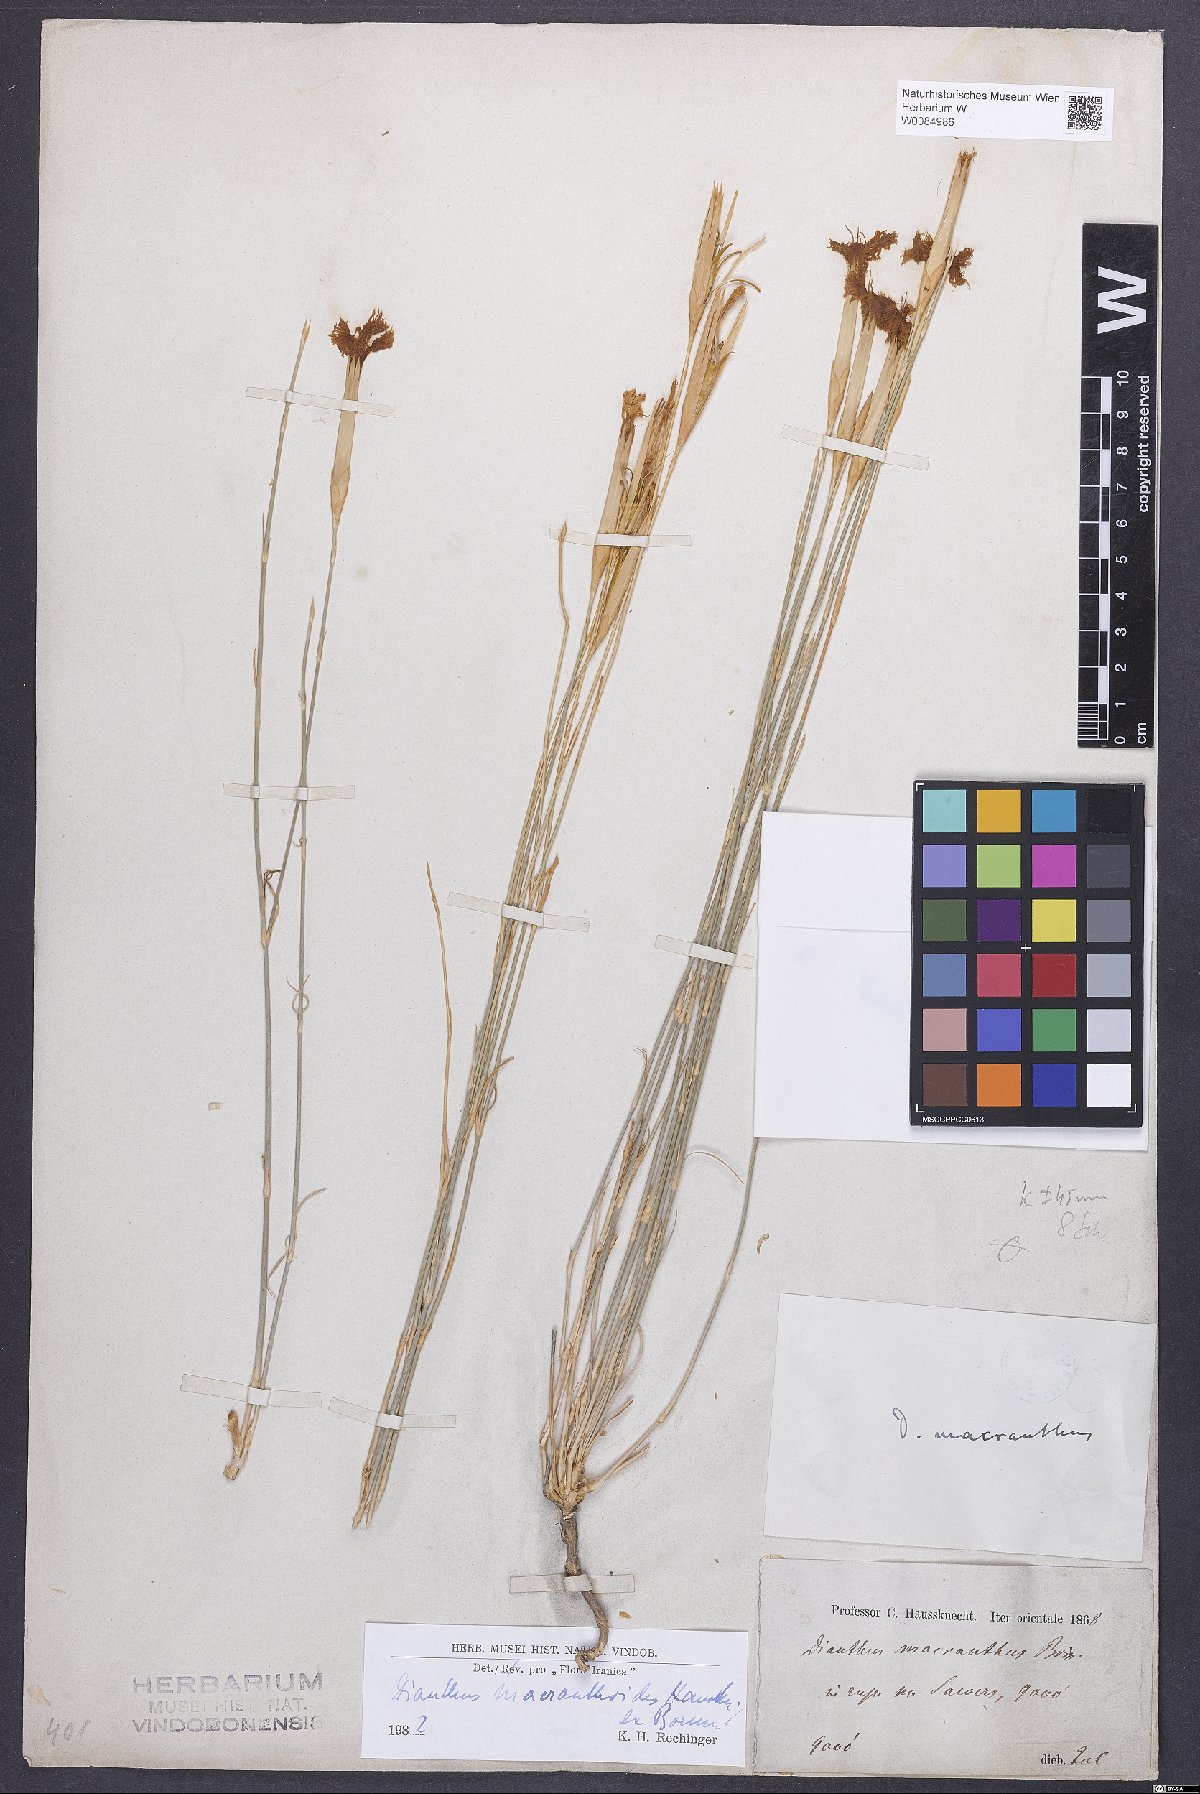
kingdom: Plantae
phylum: Tracheophyta
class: Magnoliopsida
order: Caryophyllales
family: Caryophyllaceae
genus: Dianthus
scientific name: Dianthus macranthoides
